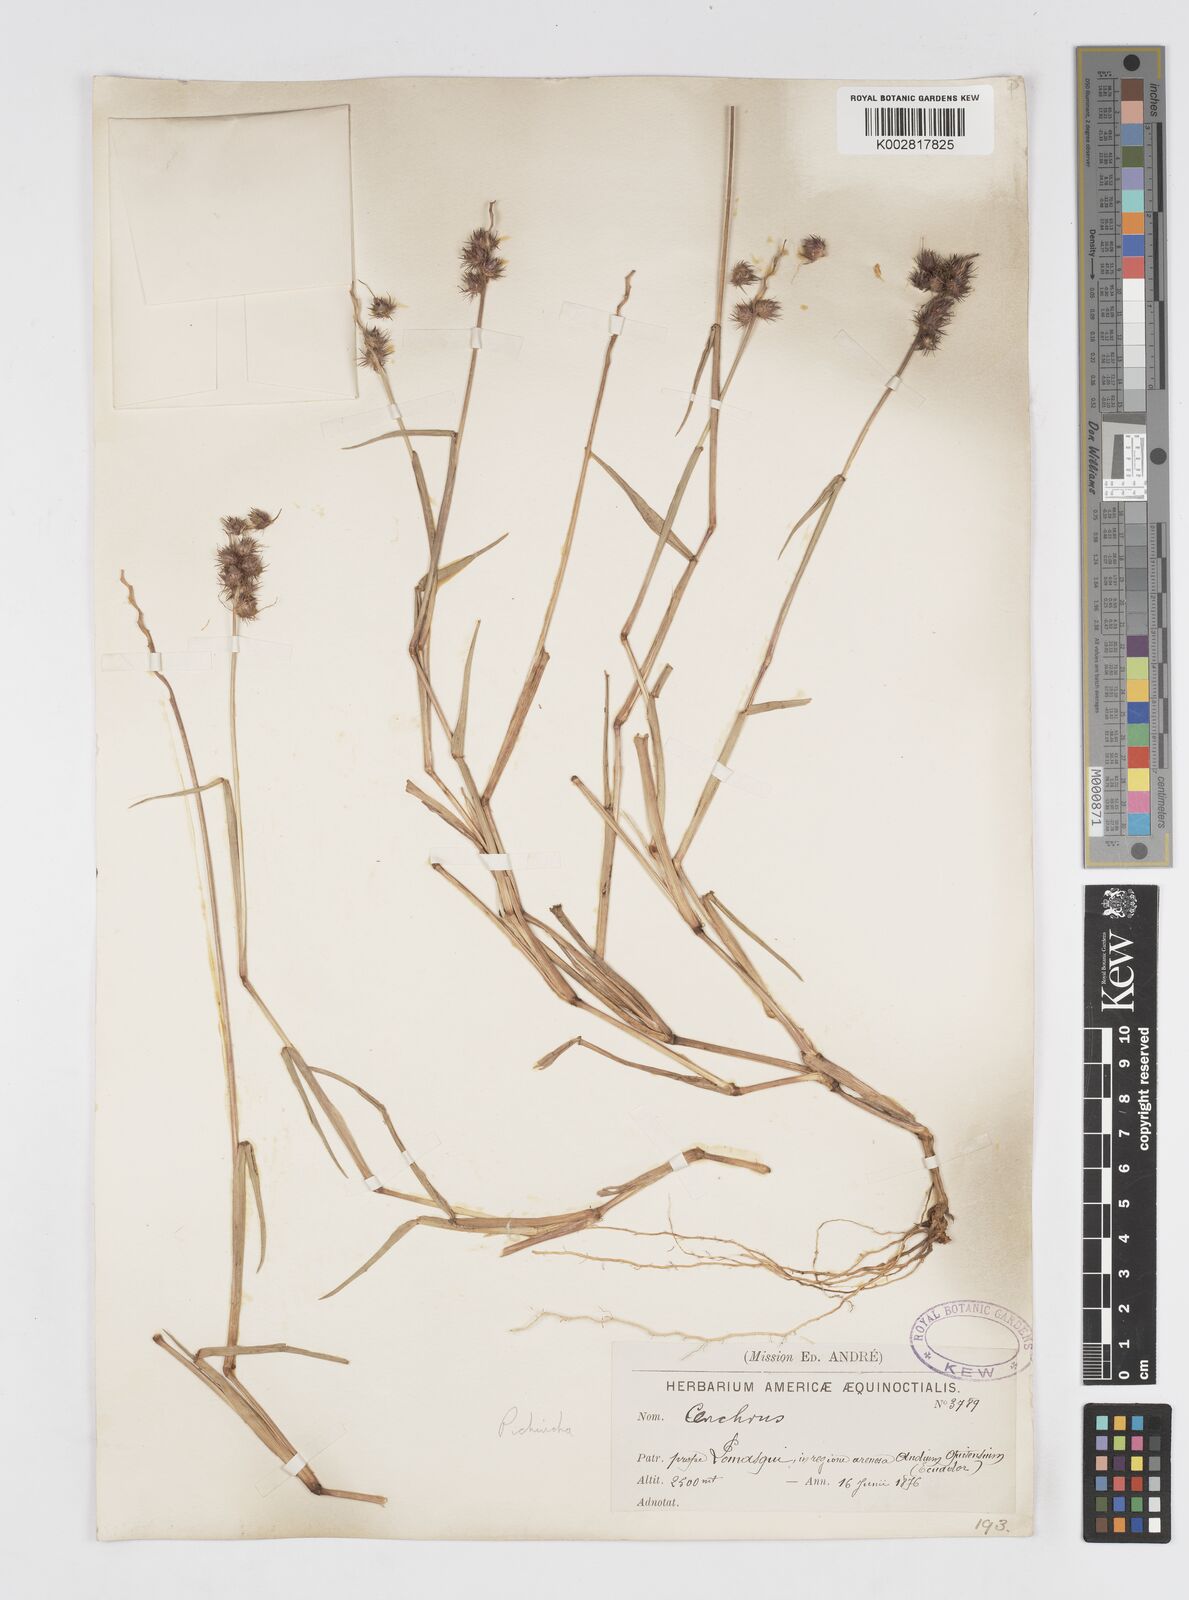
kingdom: Plantae
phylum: Tracheophyta
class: Liliopsida
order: Poales
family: Poaceae
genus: Cenchrus
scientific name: Cenchrus
